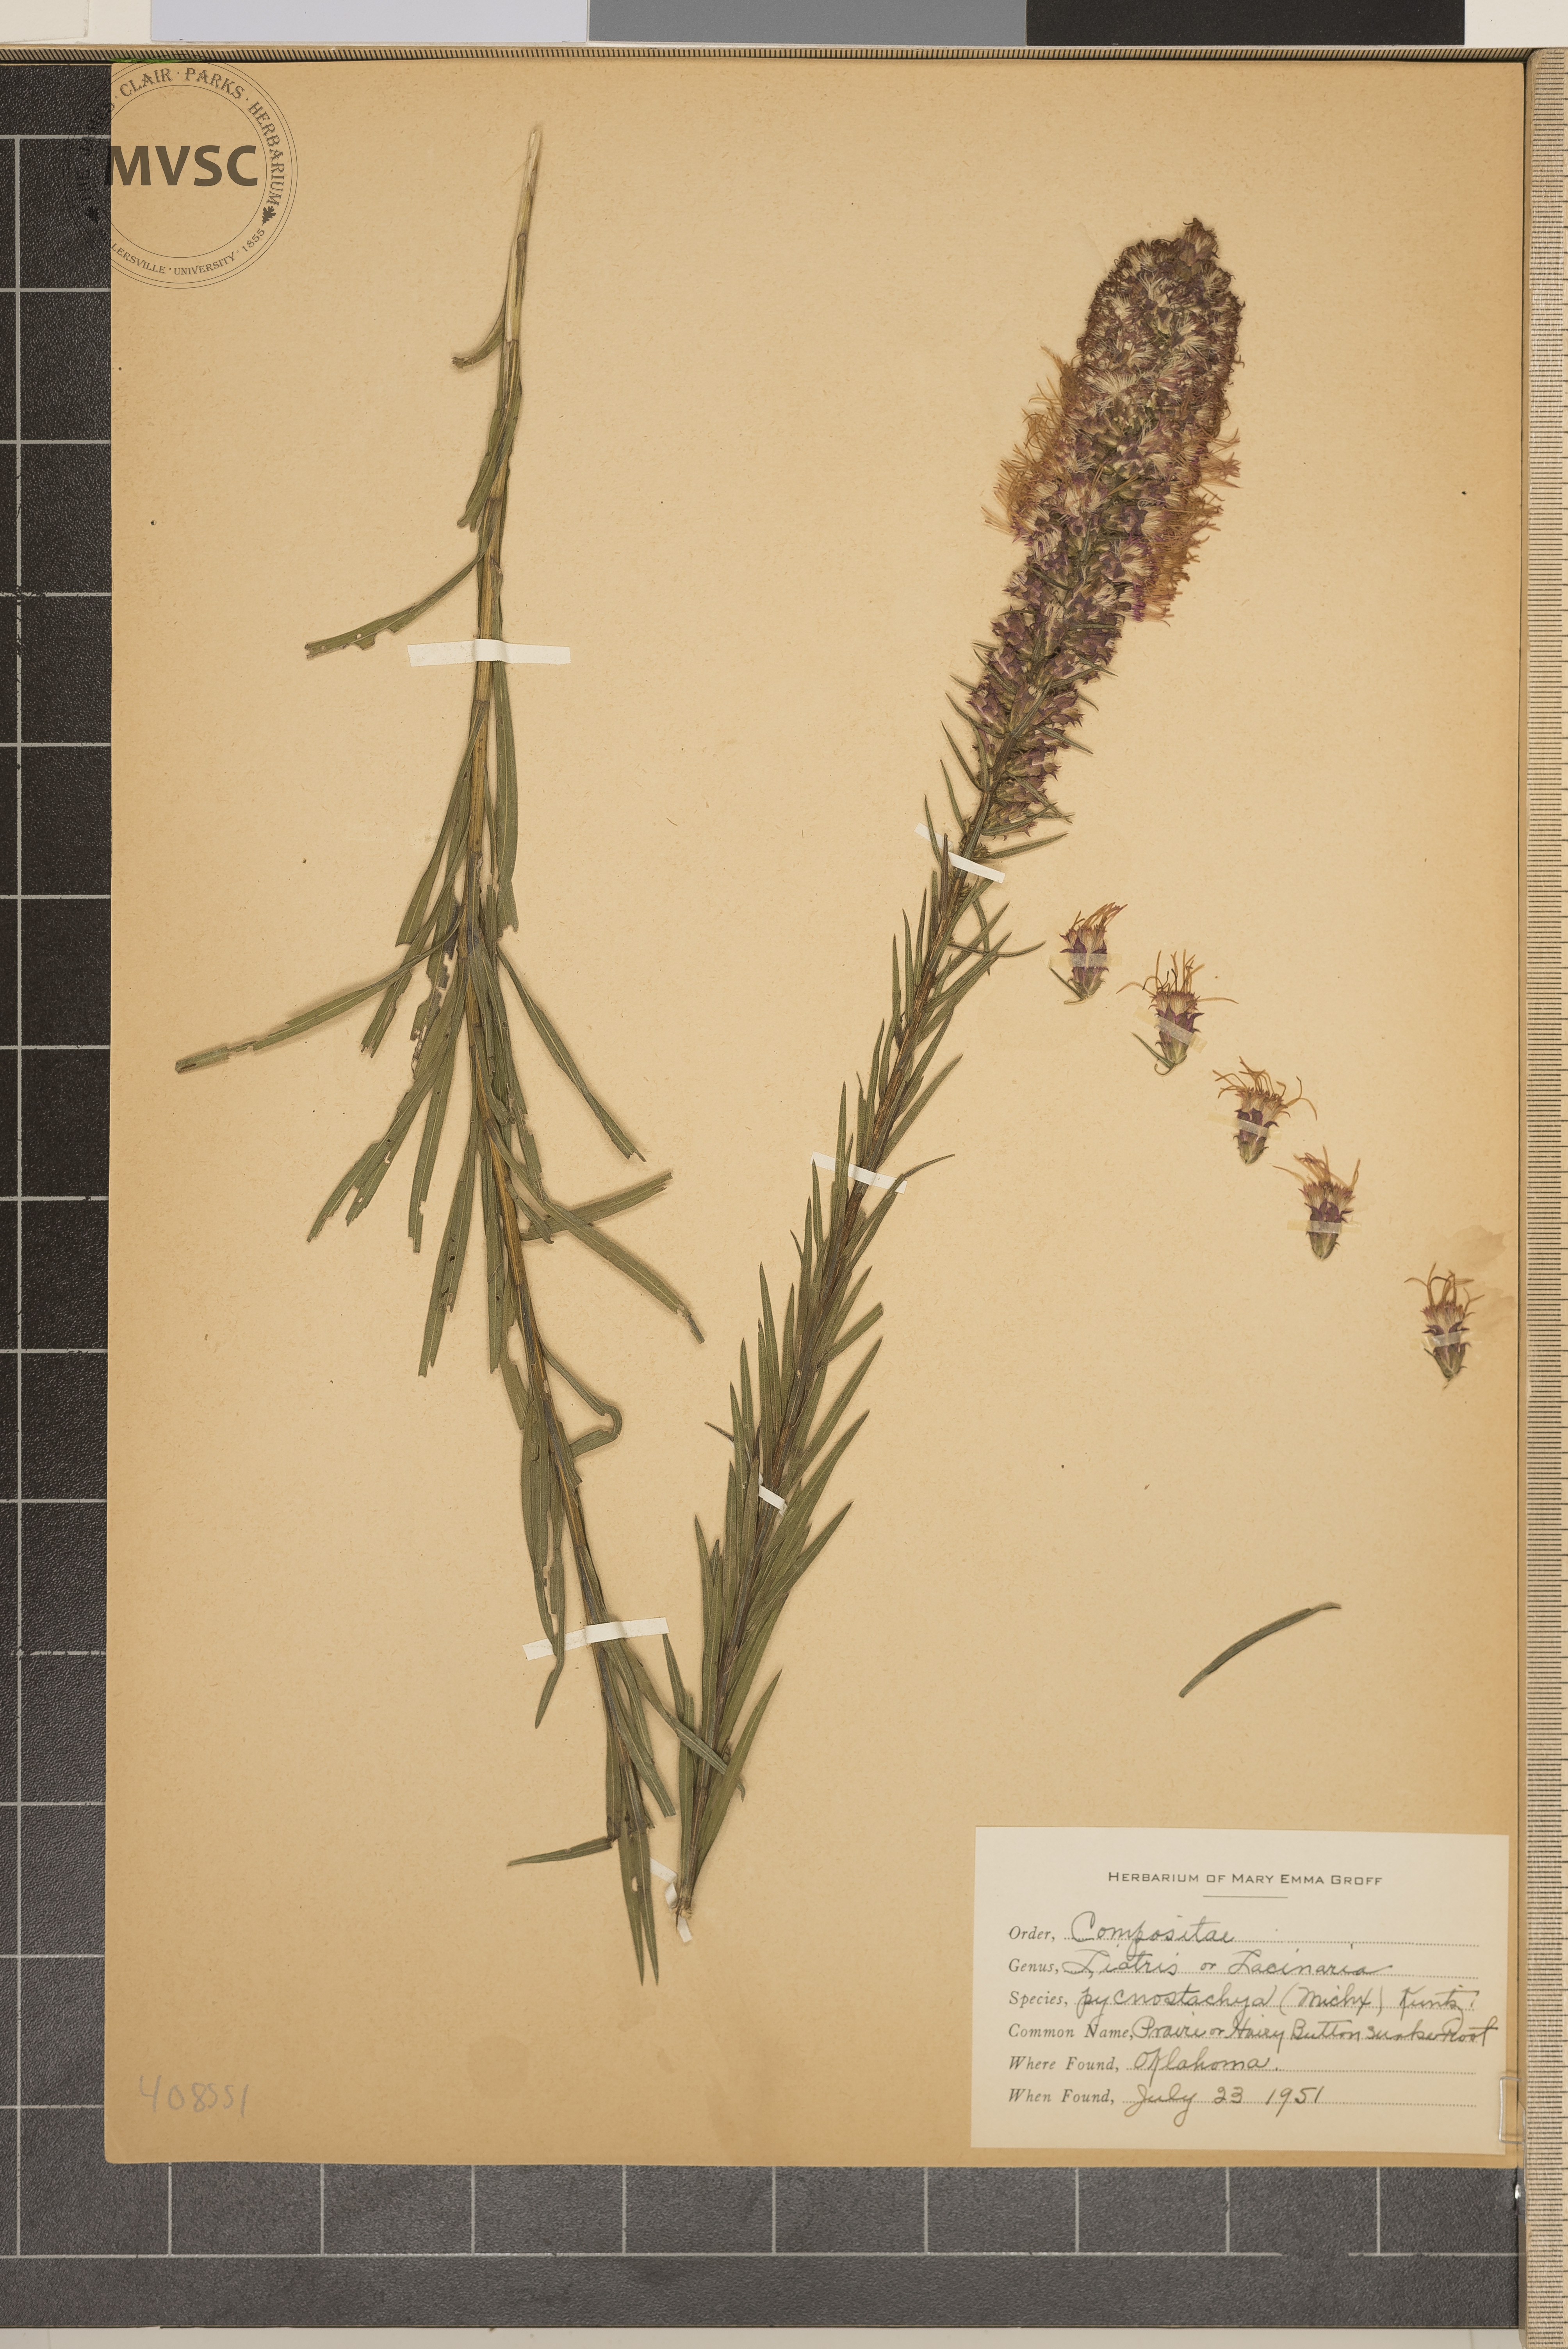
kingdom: Plantae
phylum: Tracheophyta
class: Magnoliopsida
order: Asterales
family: Asteraceae
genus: Liatris
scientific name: Liatris pycnostachya
